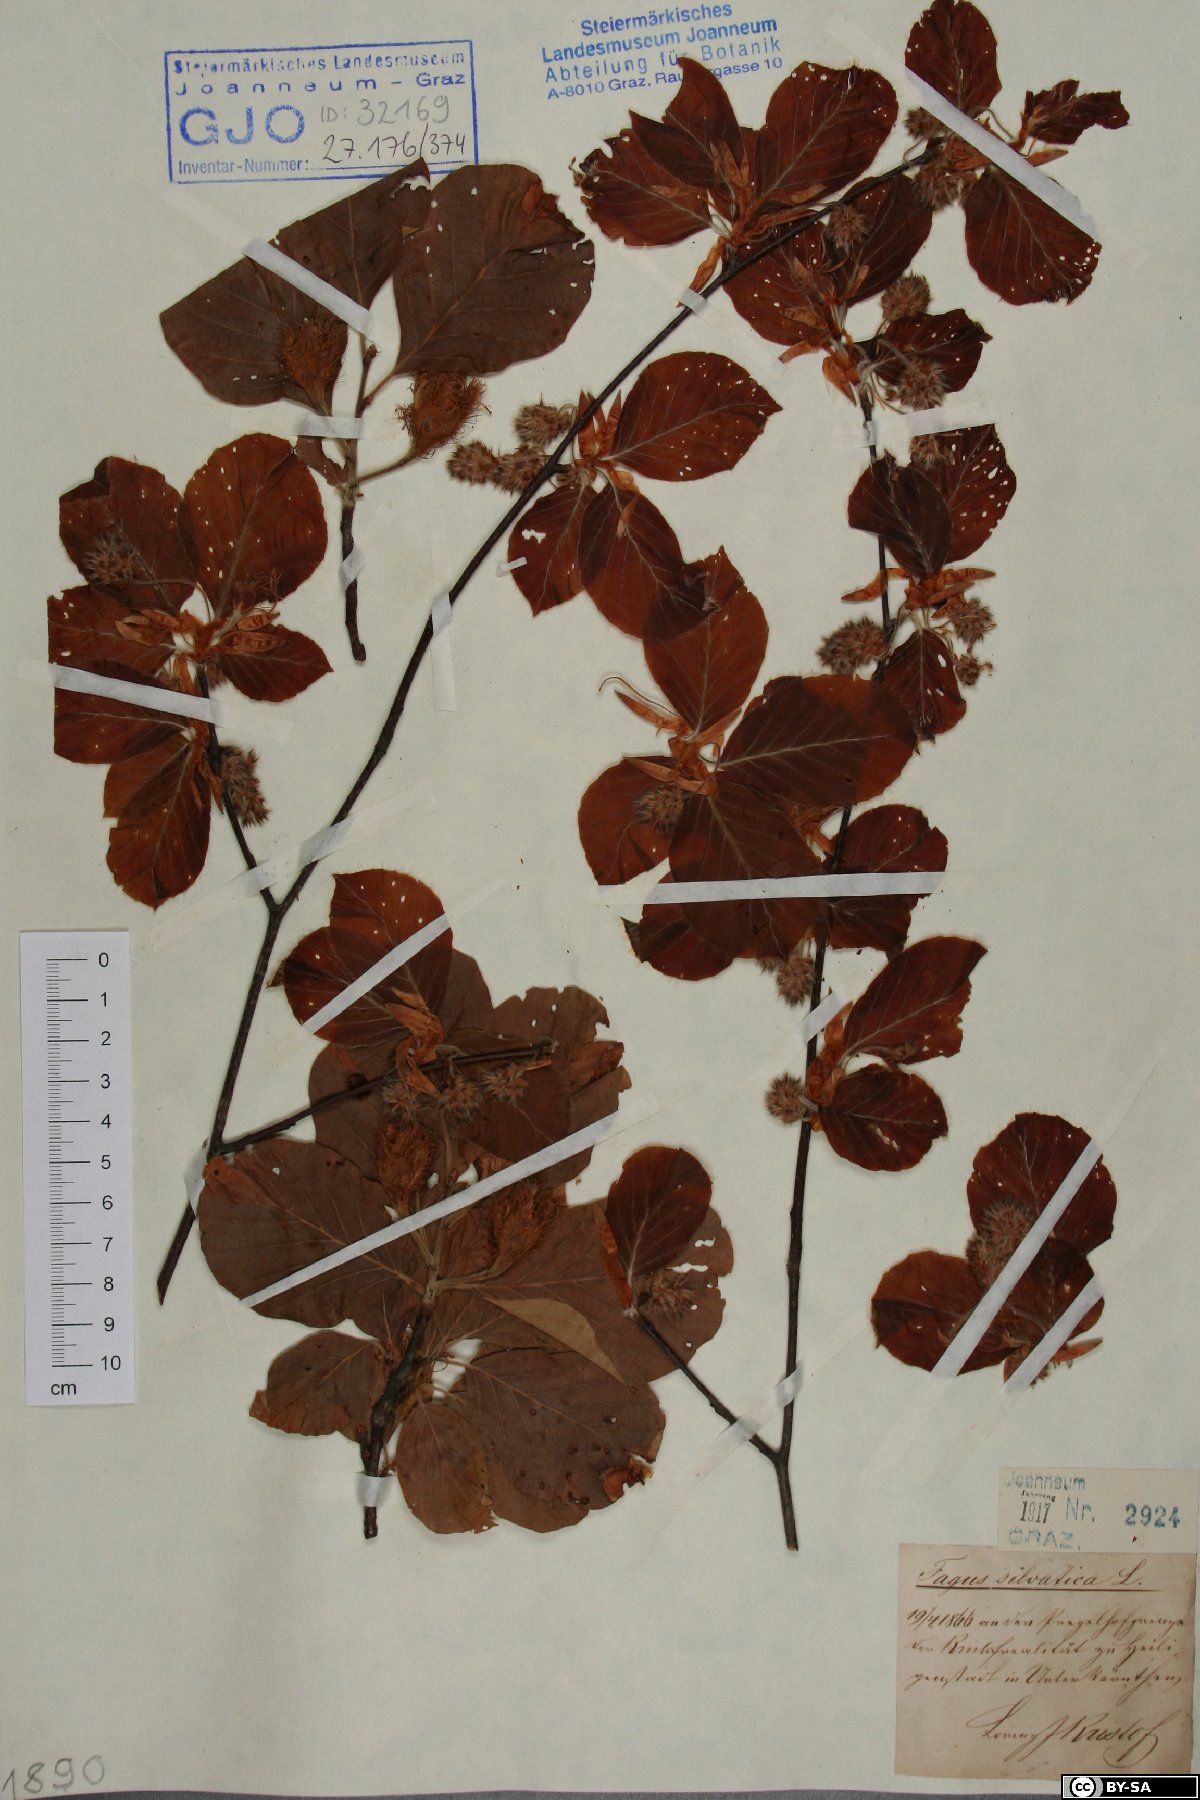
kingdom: Plantae
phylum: Tracheophyta
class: Magnoliopsida
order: Fagales
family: Fagaceae
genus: Fagus
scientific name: Fagus sylvatica
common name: Beech
